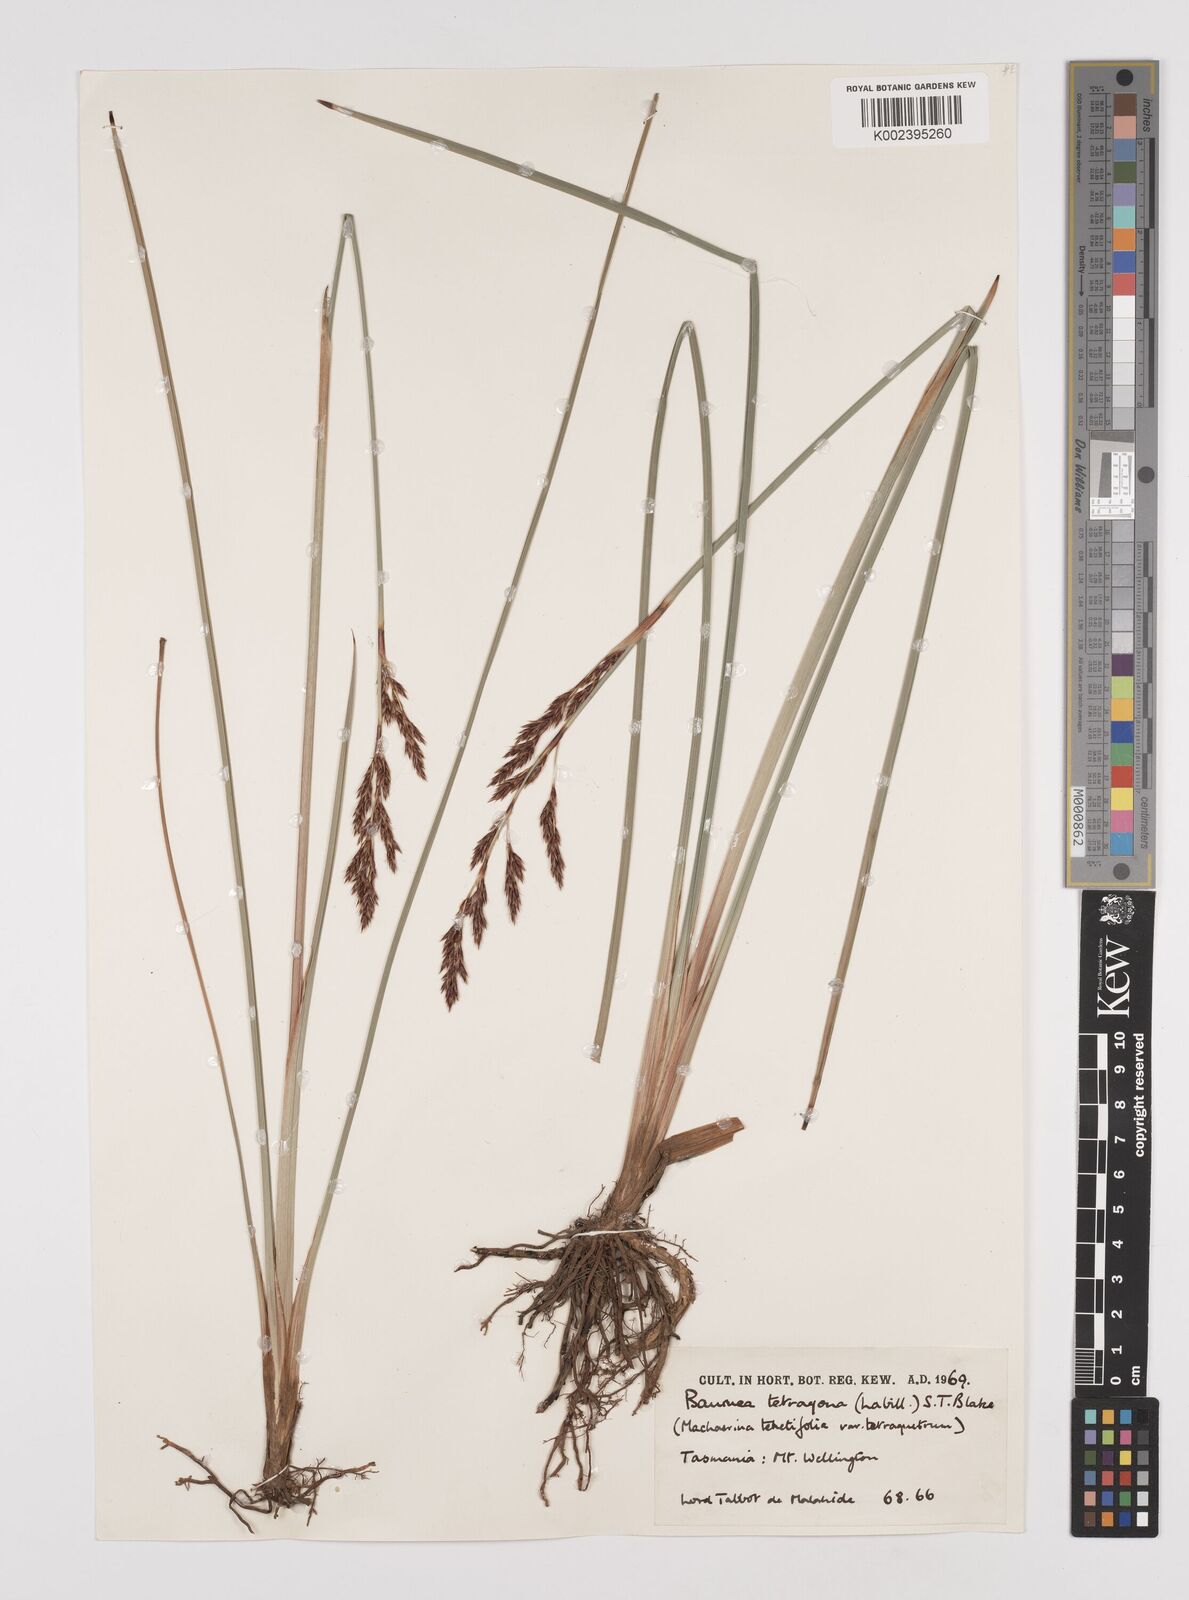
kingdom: Plantae
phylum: Tracheophyta
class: Liliopsida
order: Poales
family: Cyperaceae
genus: Machaerina
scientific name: Machaerina tetragona
